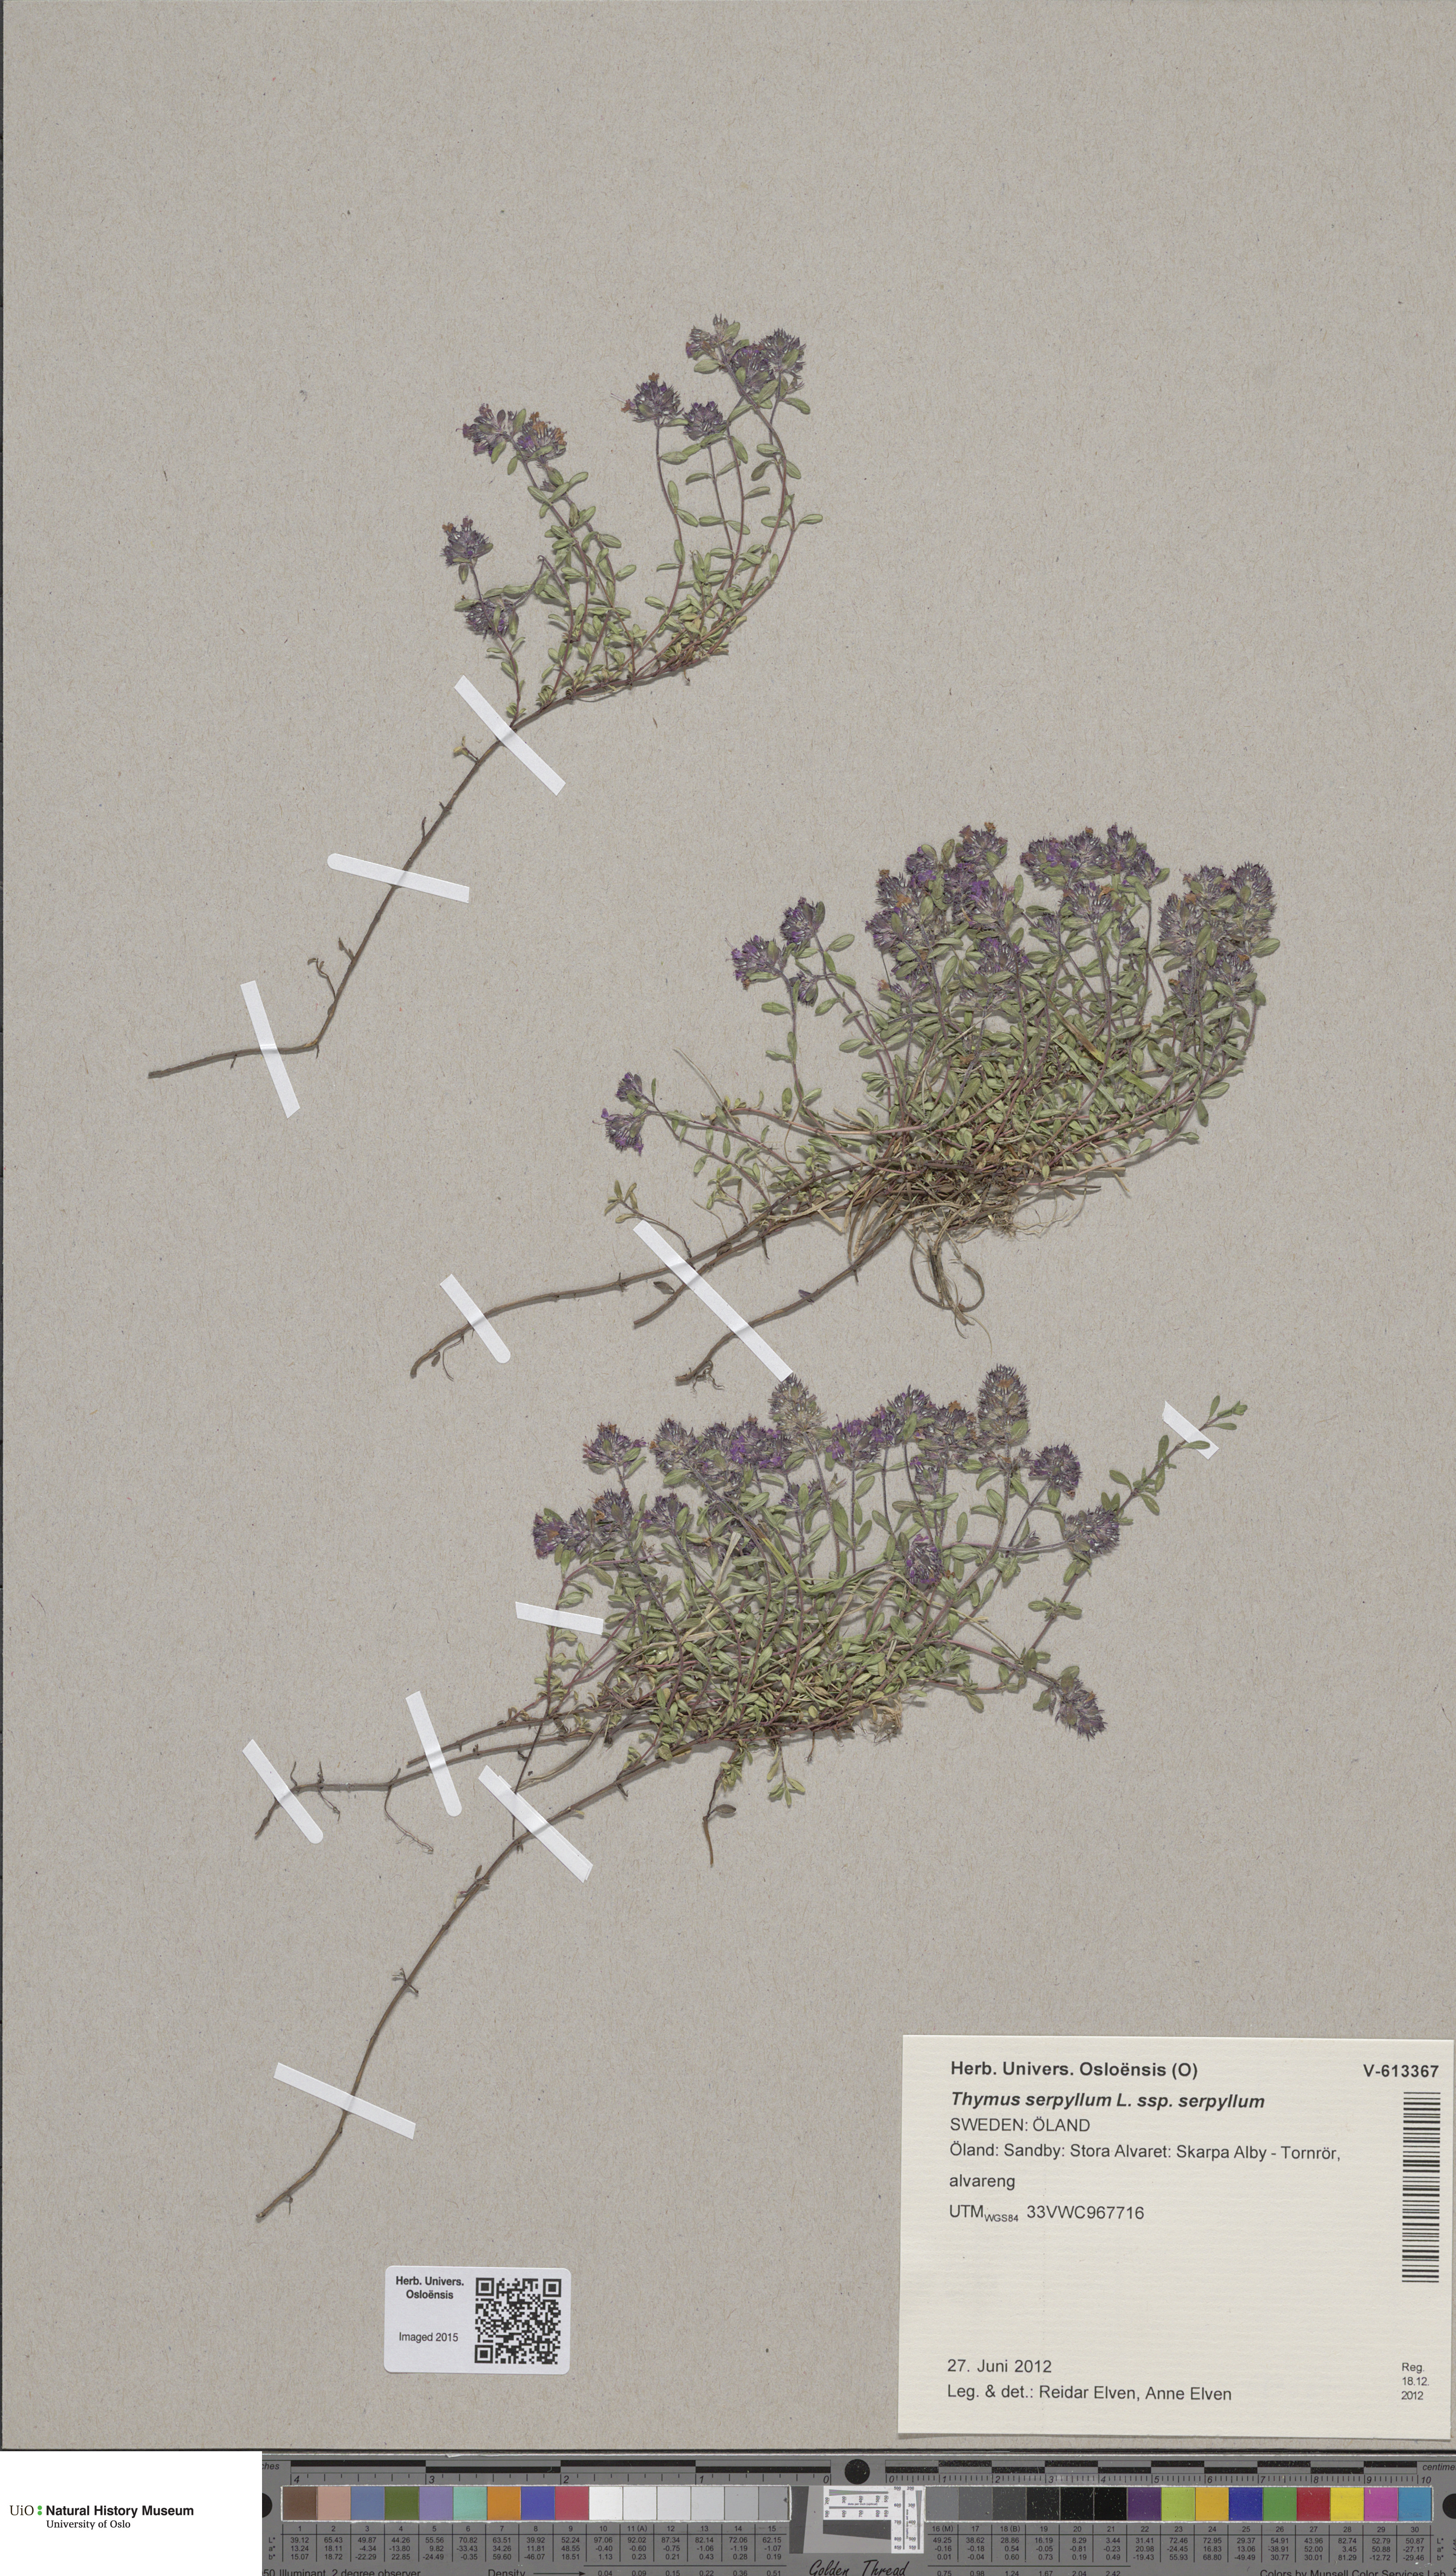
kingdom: Plantae
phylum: Tracheophyta
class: Magnoliopsida
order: Lamiales
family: Lamiaceae
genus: Thymus
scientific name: Thymus serpyllum
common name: Breckland thyme
